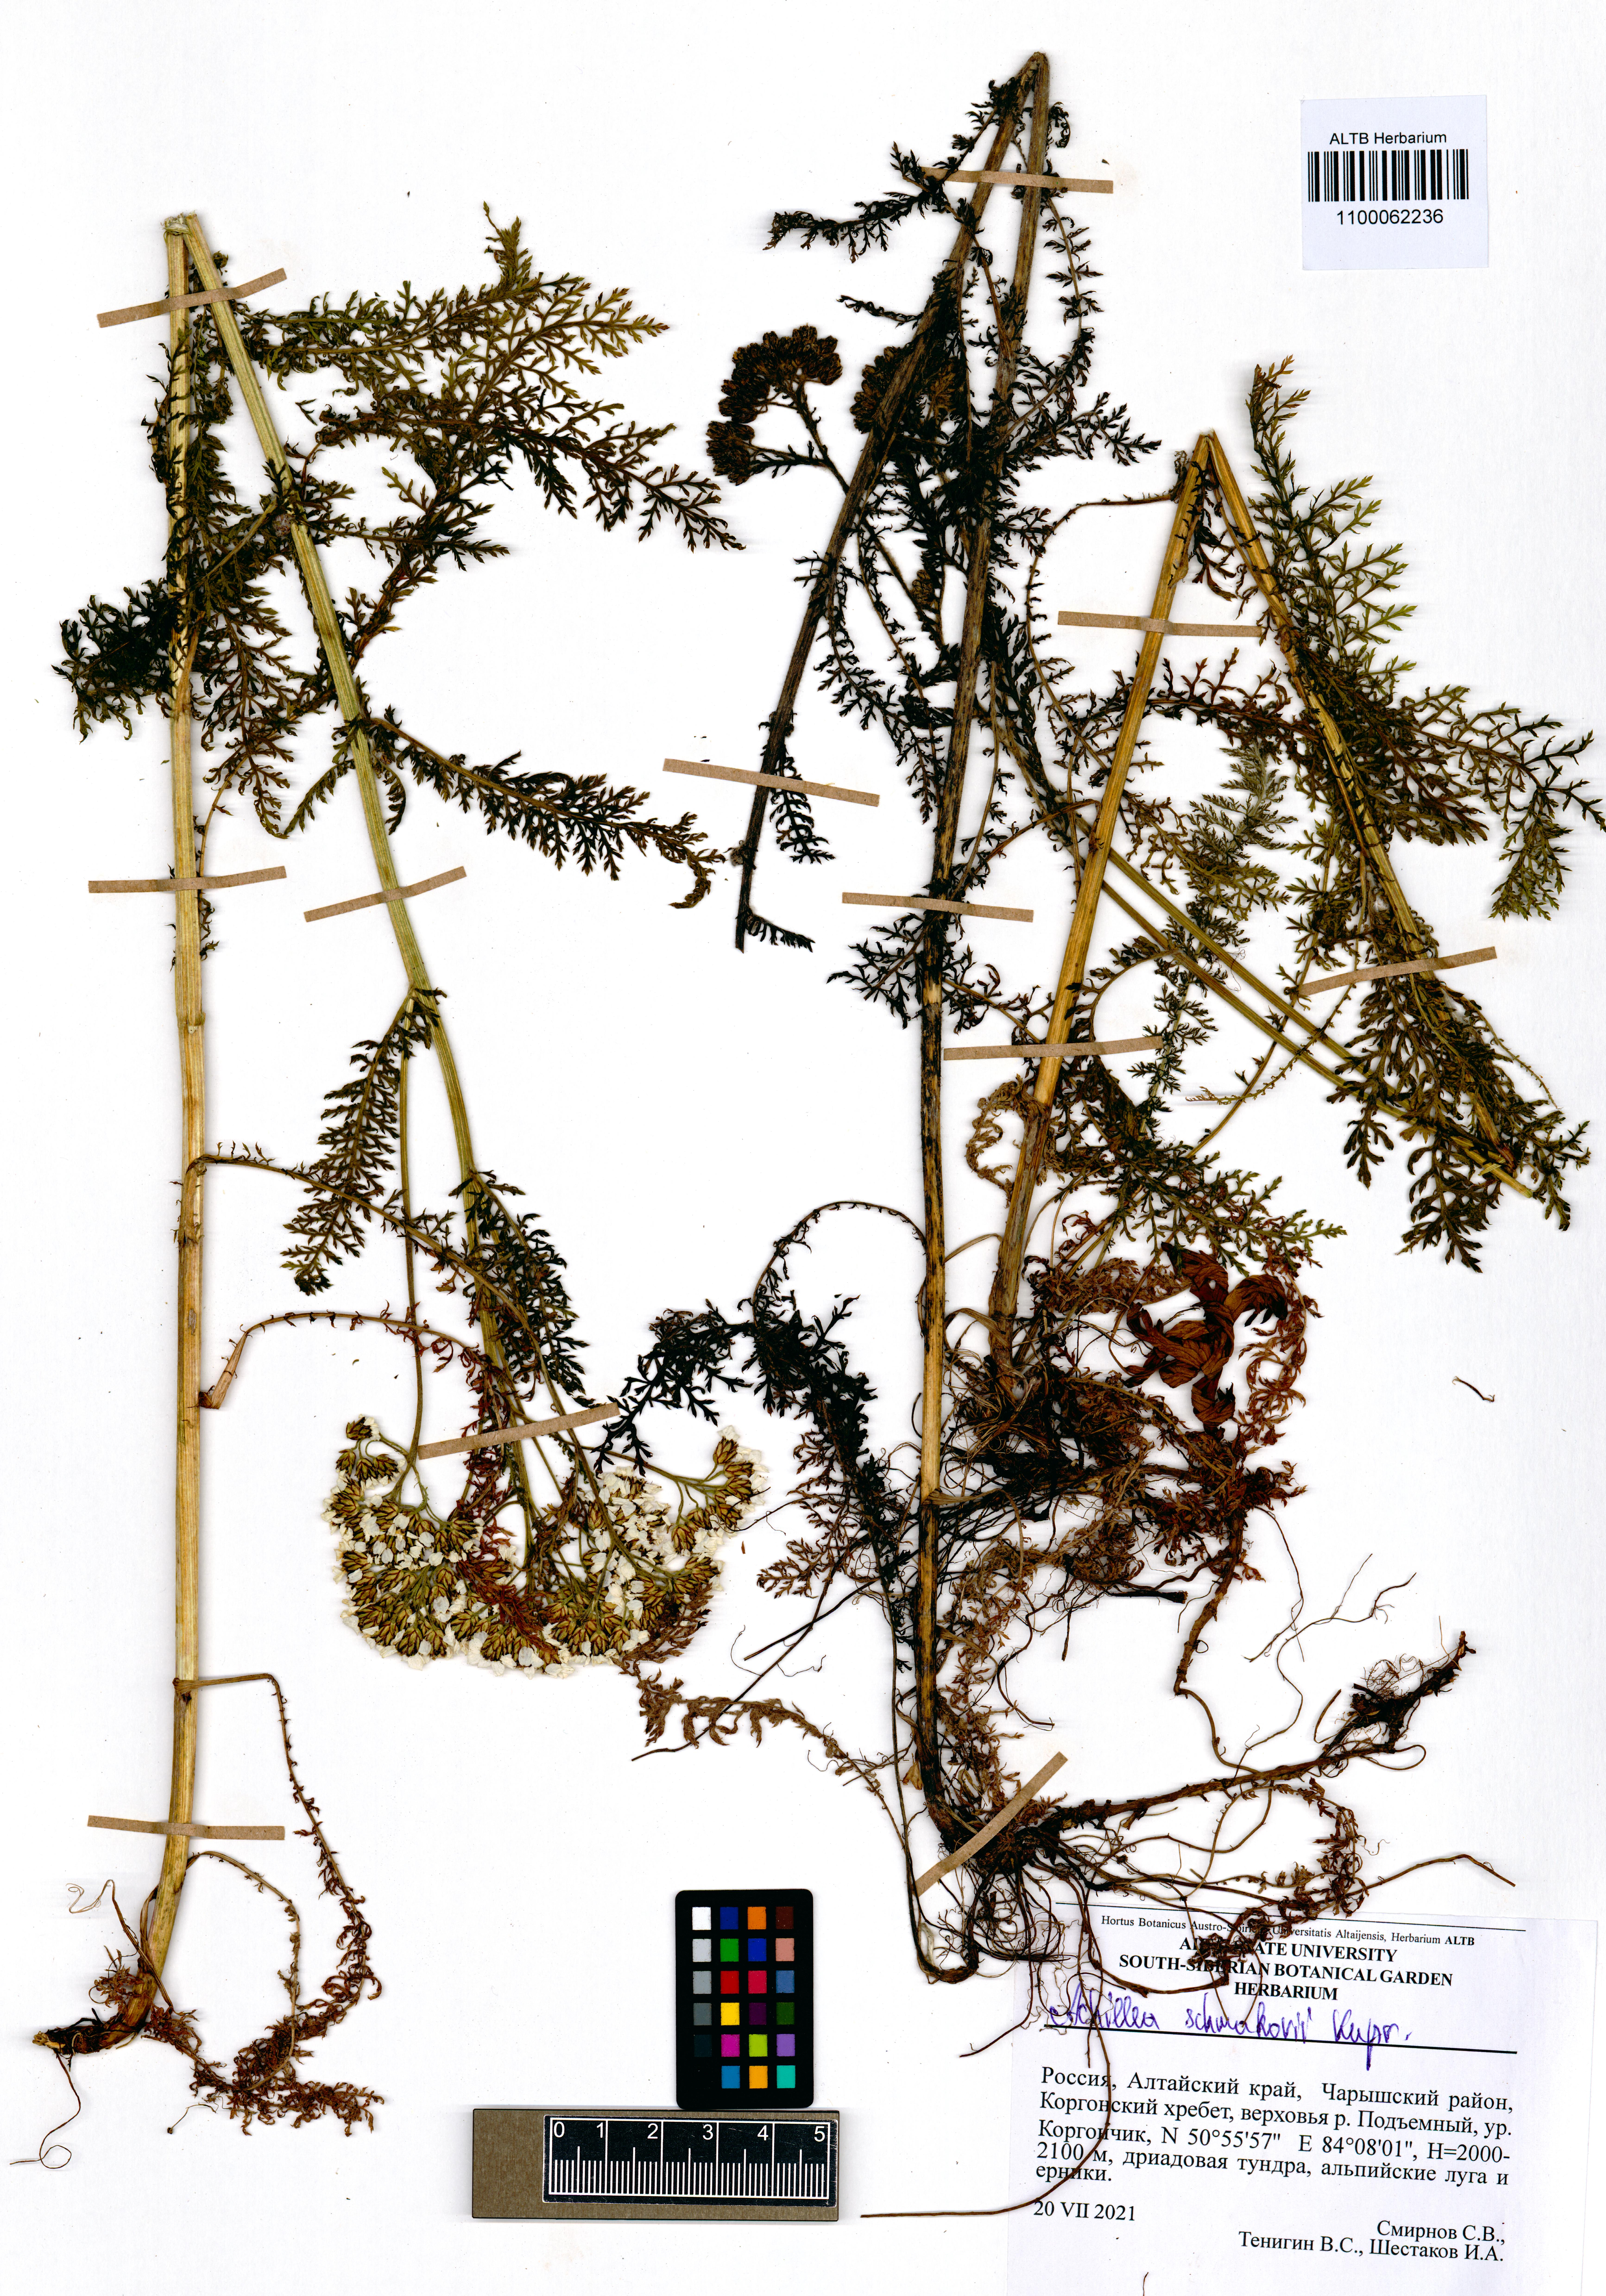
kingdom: Plantae
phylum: Tracheophyta
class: Magnoliopsida
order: Asterales
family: Asteraceae
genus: Achillea
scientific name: Achillea schmakovii
